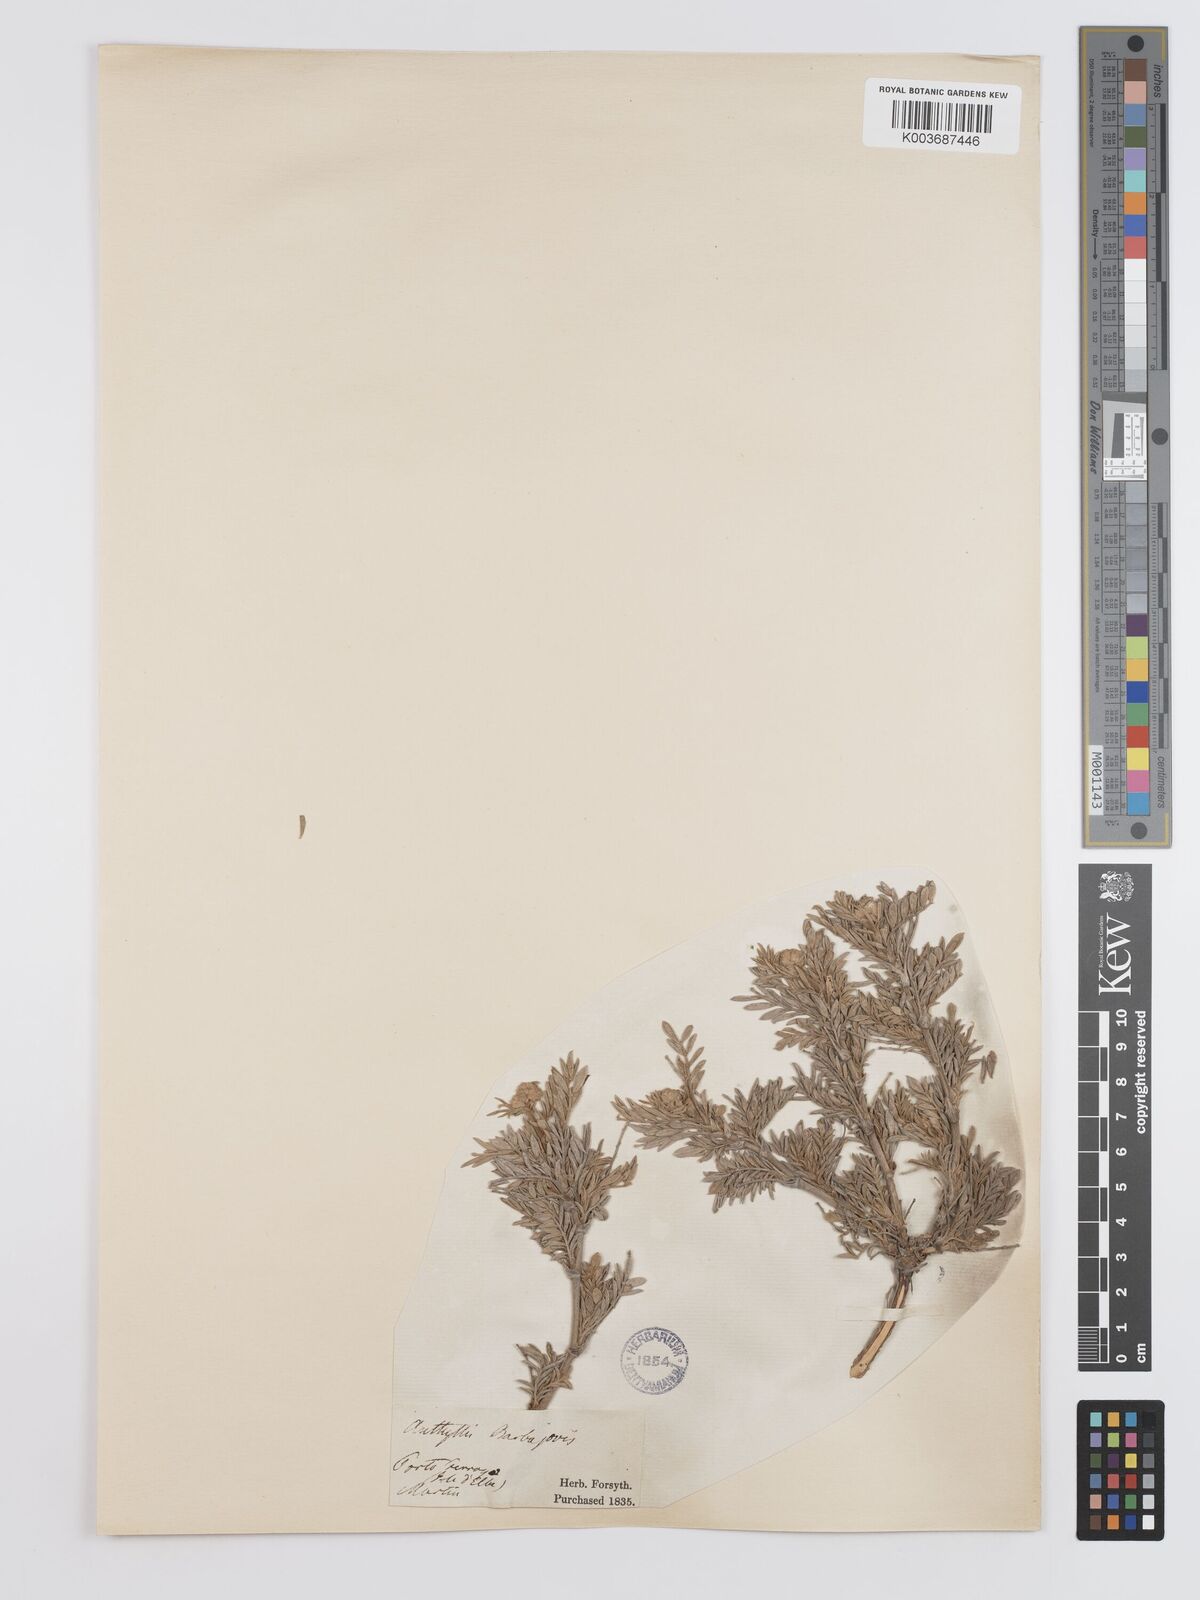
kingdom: Plantae
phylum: Tracheophyta
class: Magnoliopsida
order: Fabales
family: Fabaceae
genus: Anthyllis
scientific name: Anthyllis barba-jovis
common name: Jupiter's-beard
